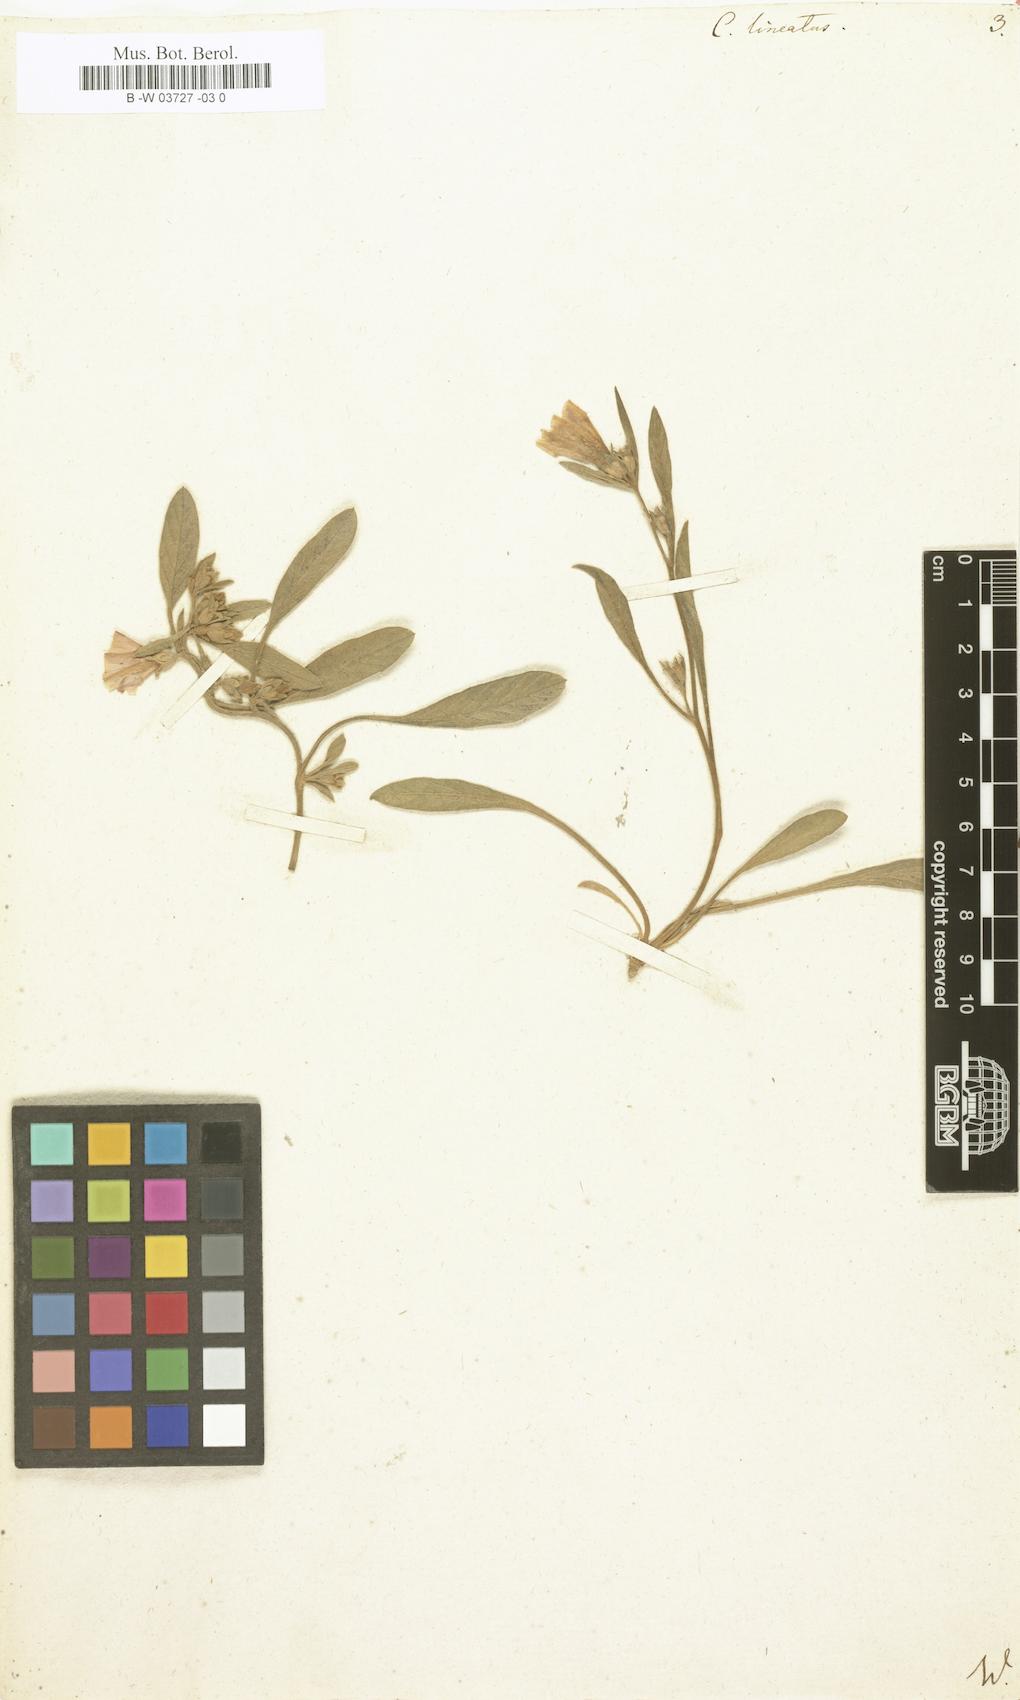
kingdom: Plantae
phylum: Tracheophyta
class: Magnoliopsida
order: Solanales
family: Convolvulaceae
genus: Convolvulus
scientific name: Convolvulus lineatus
